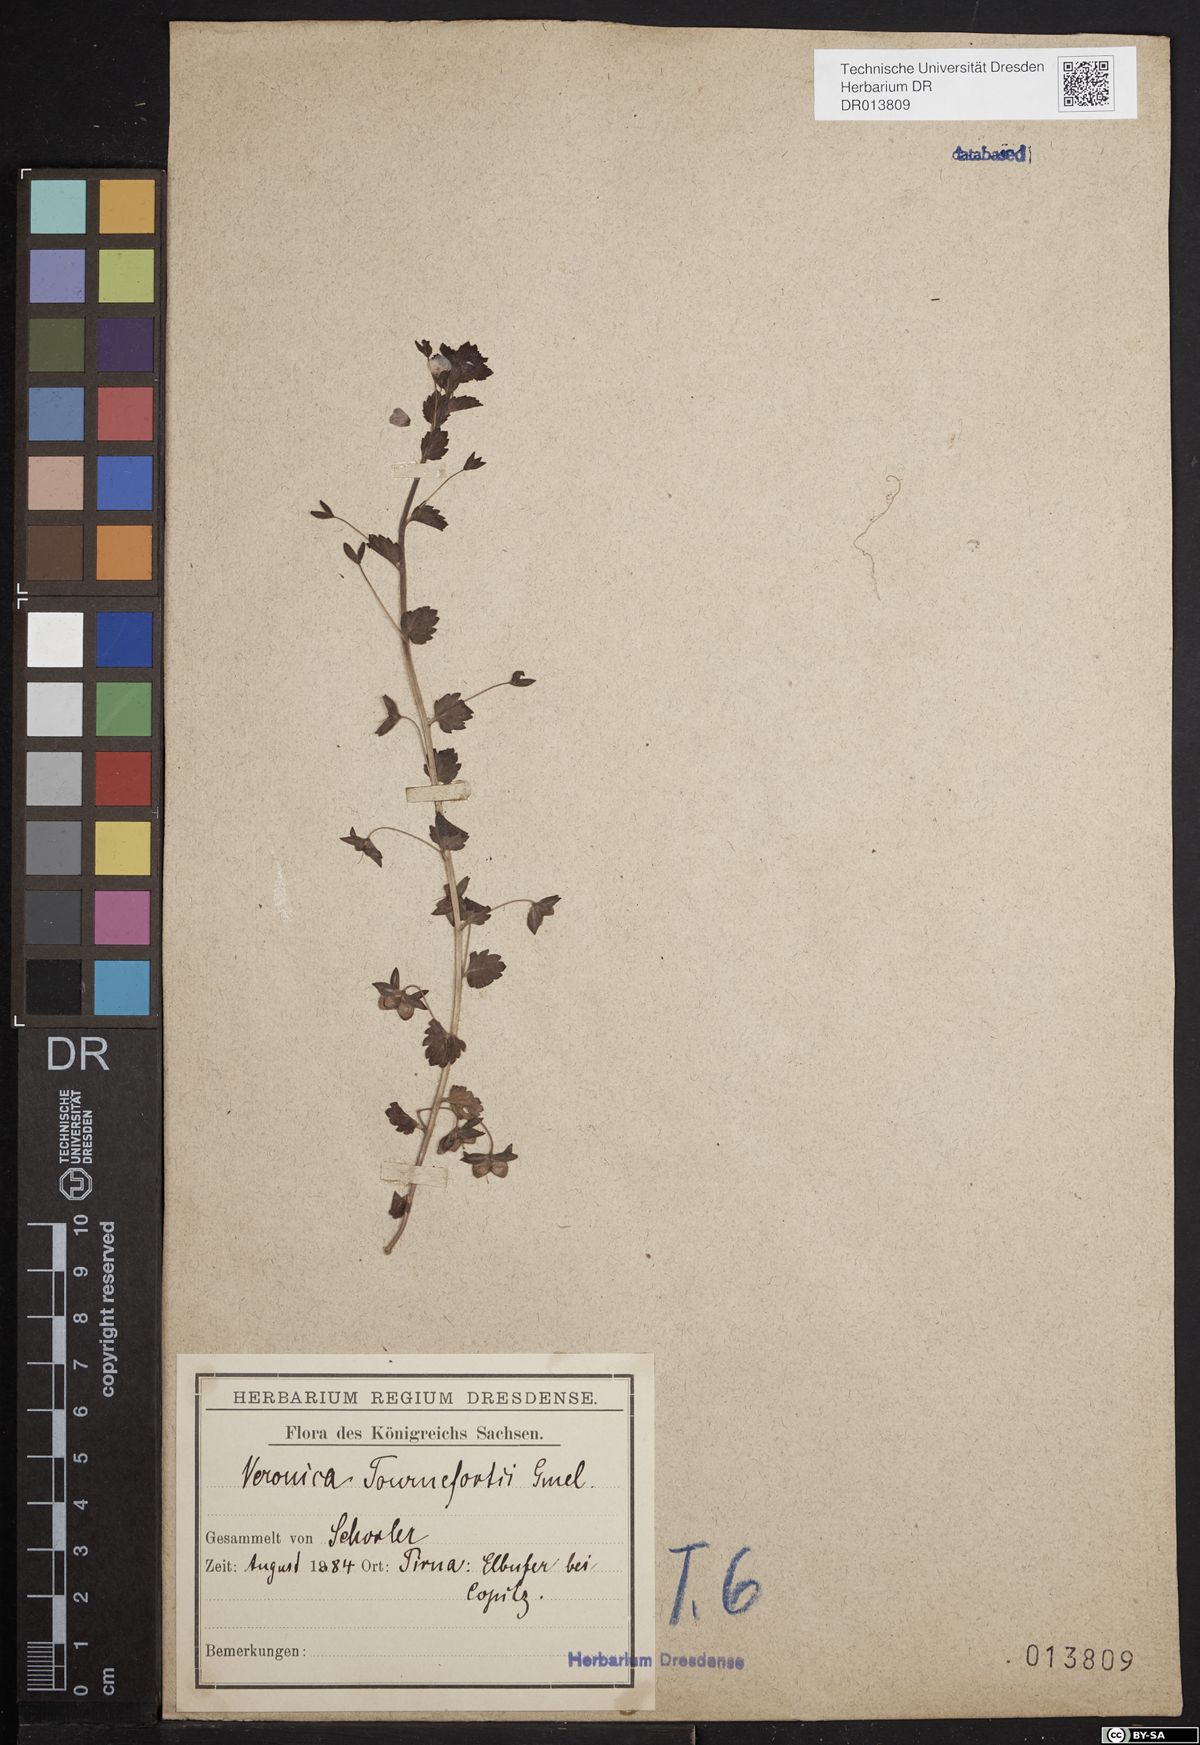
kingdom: Plantae
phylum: Tracheophyta
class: Magnoliopsida
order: Lamiales
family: Plantaginaceae
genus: Veronica
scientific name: Veronica persica
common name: Common field-speedwell
